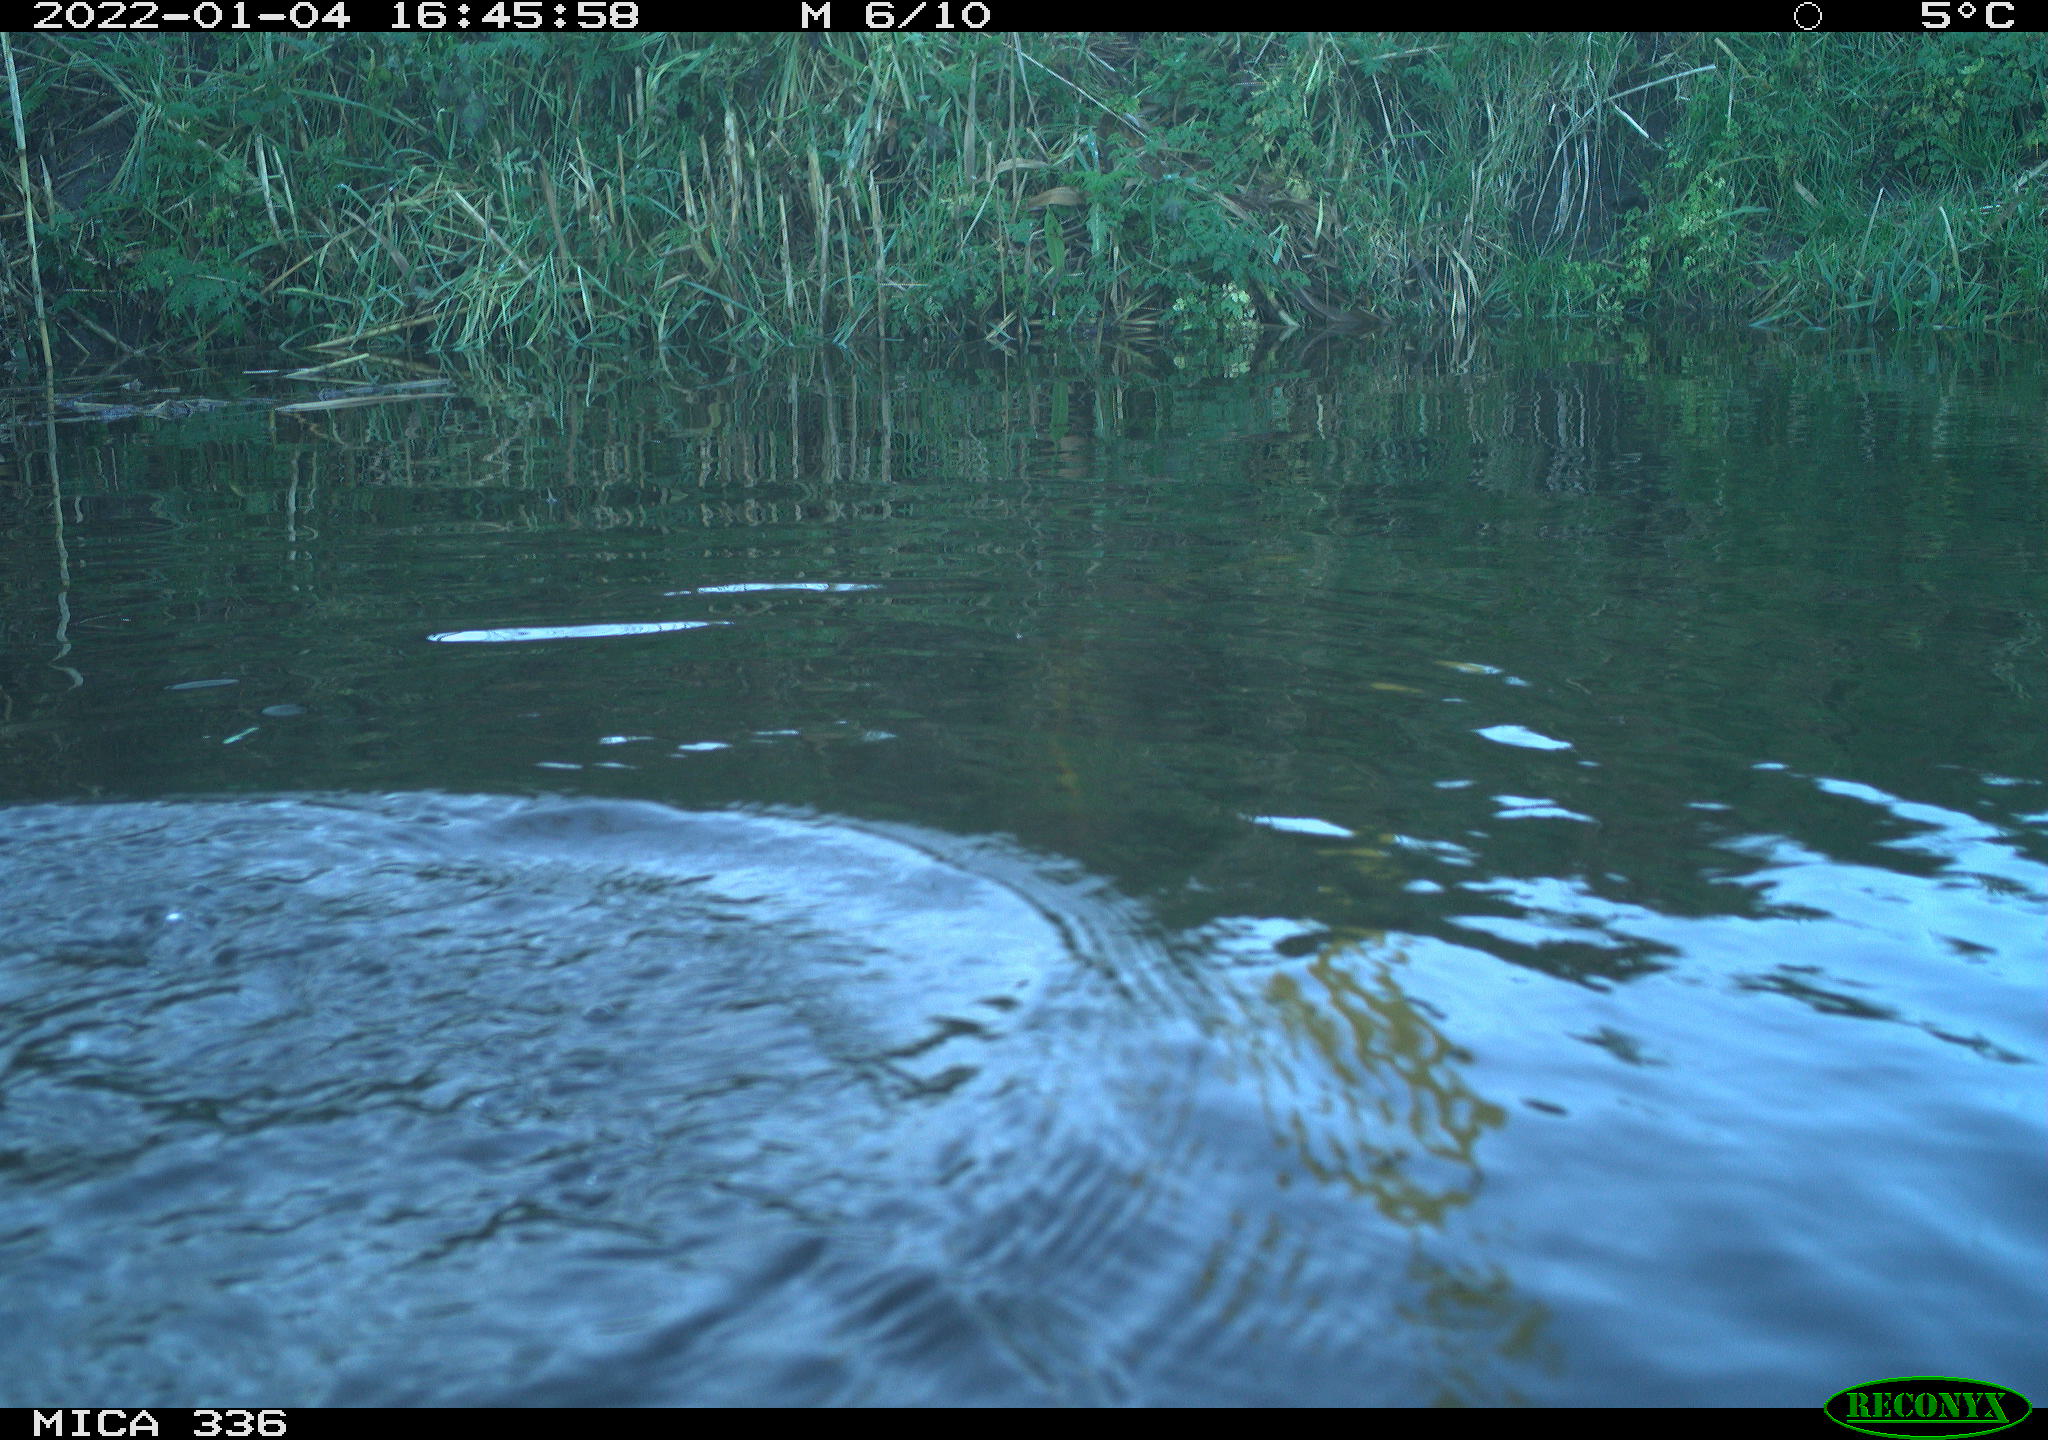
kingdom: Animalia
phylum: Chordata
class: Aves
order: Podicipediformes
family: Podicipedidae
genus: Podiceps
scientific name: Podiceps cristatus
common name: Great crested grebe
